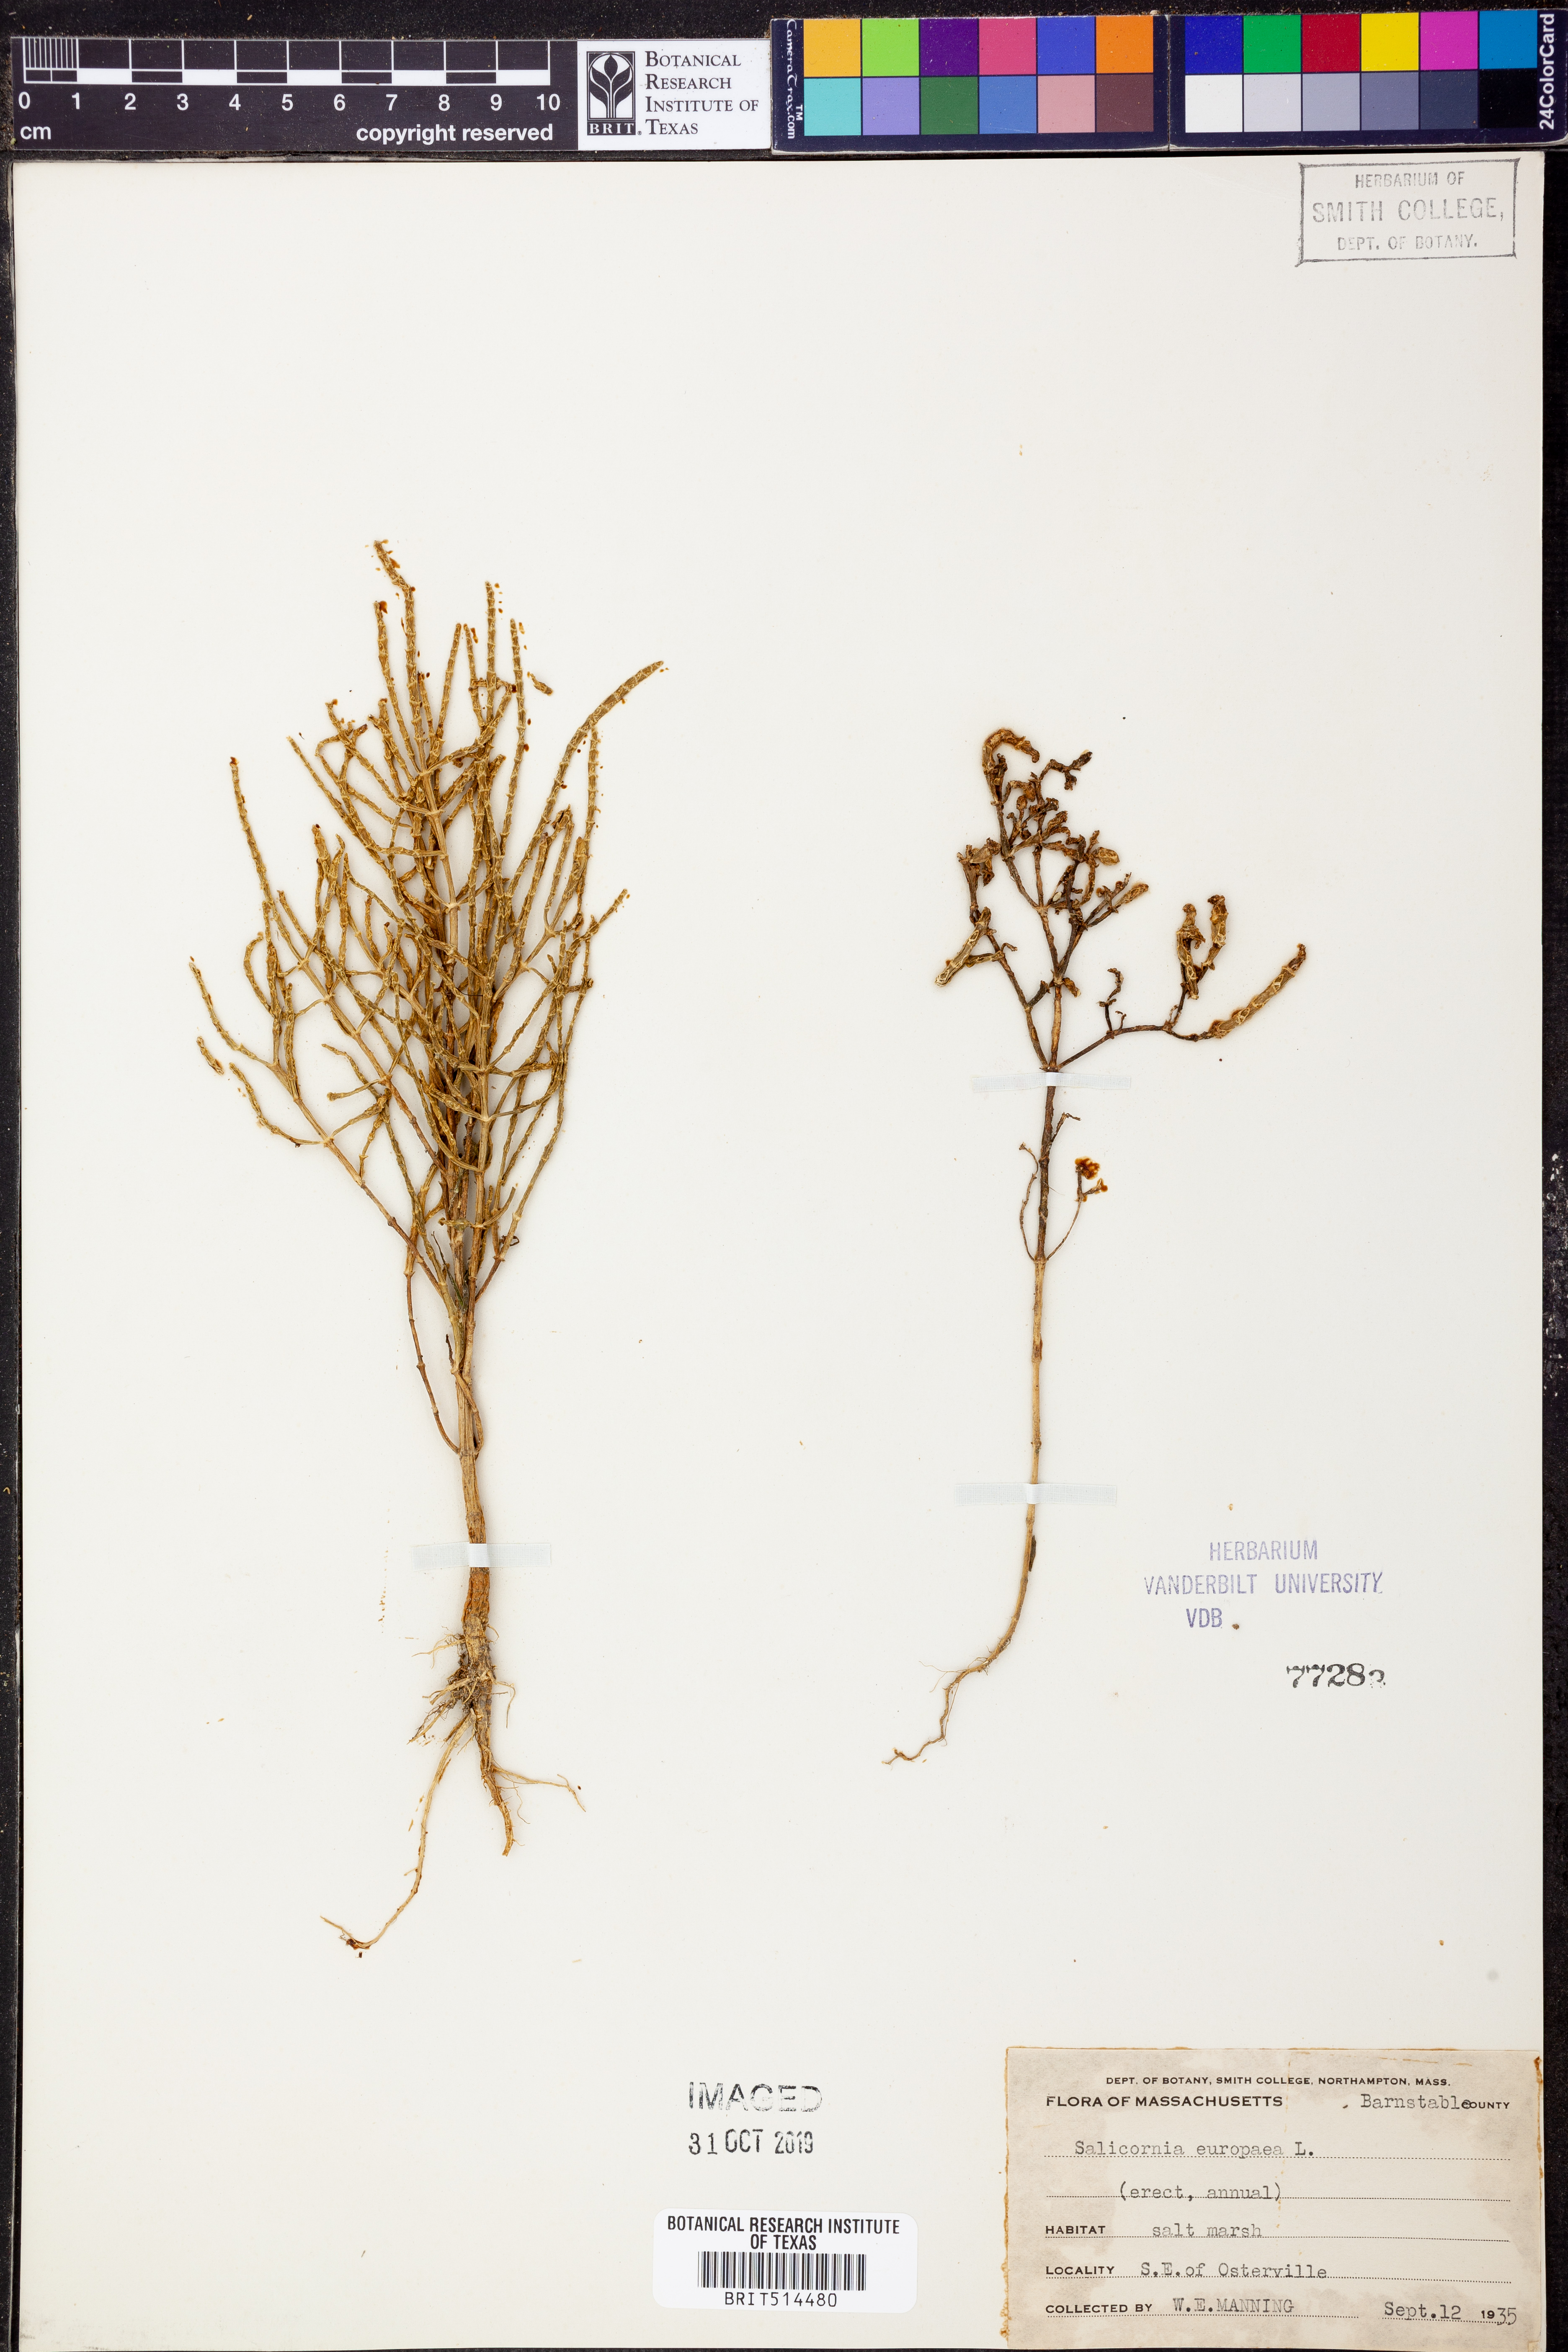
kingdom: Plantae
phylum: Tracheophyta
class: Magnoliopsida
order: Caryophyllales
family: Amaranthaceae
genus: Salicornia
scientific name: Salicornia europaea
